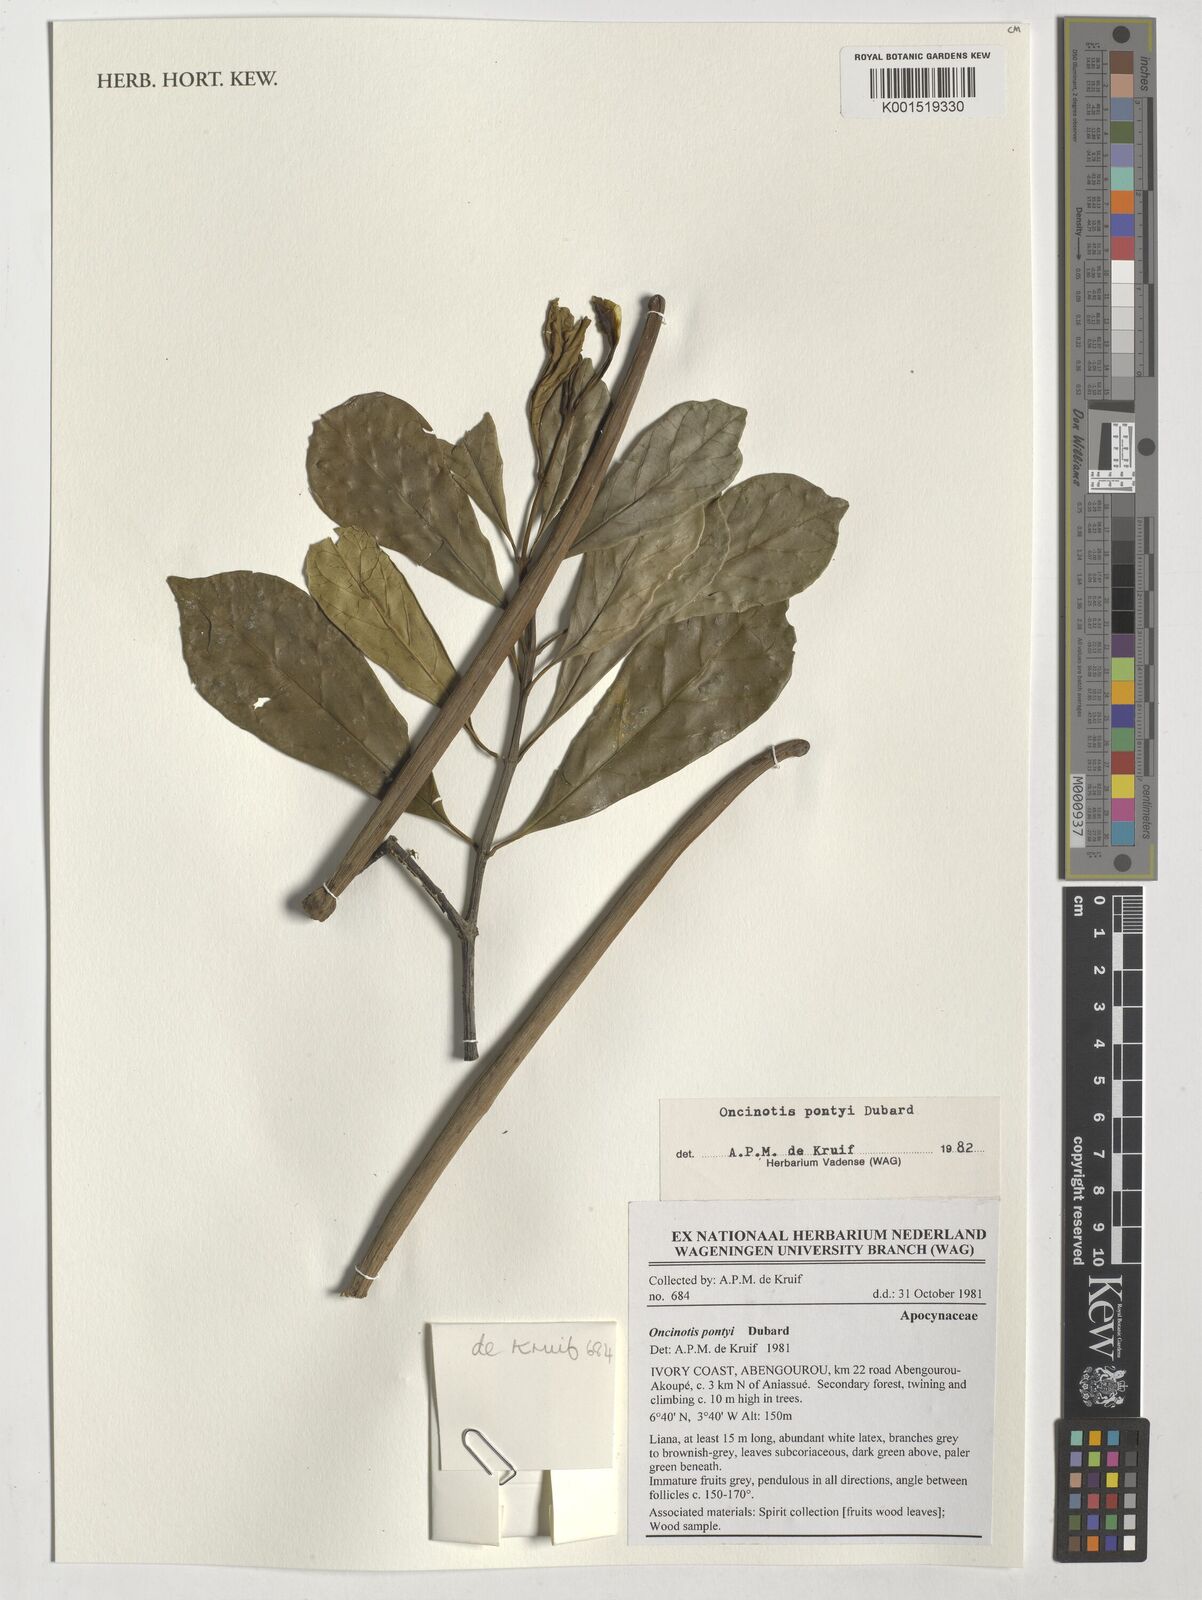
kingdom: Plantae
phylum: Tracheophyta
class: Magnoliopsida
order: Gentianales
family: Apocynaceae
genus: Oncinotis
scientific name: Oncinotis pontyi
